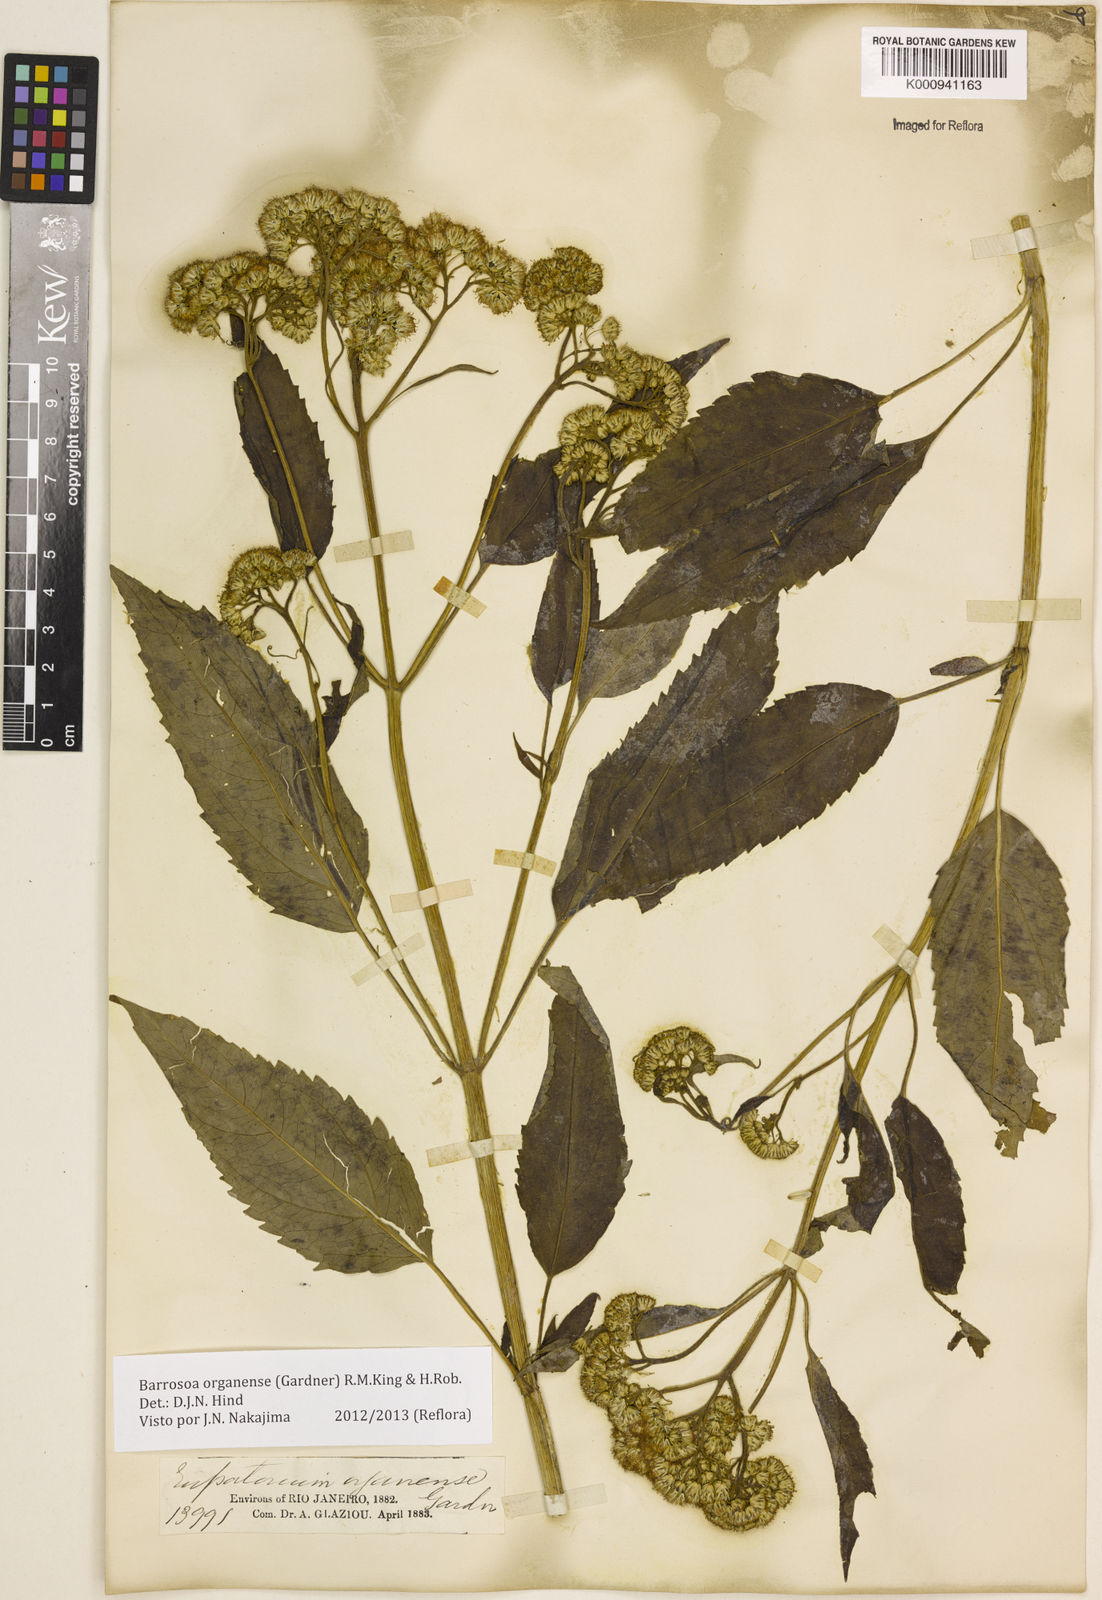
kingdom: Plantae
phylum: Tracheophyta
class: Magnoliopsida
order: Asterales
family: Asteraceae
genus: Barrosoa
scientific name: Barrosoa
